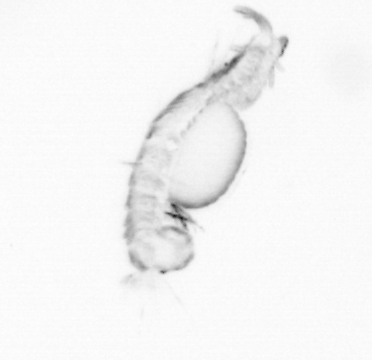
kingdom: Animalia
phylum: Annelida
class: Polychaeta
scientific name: Polychaeta
